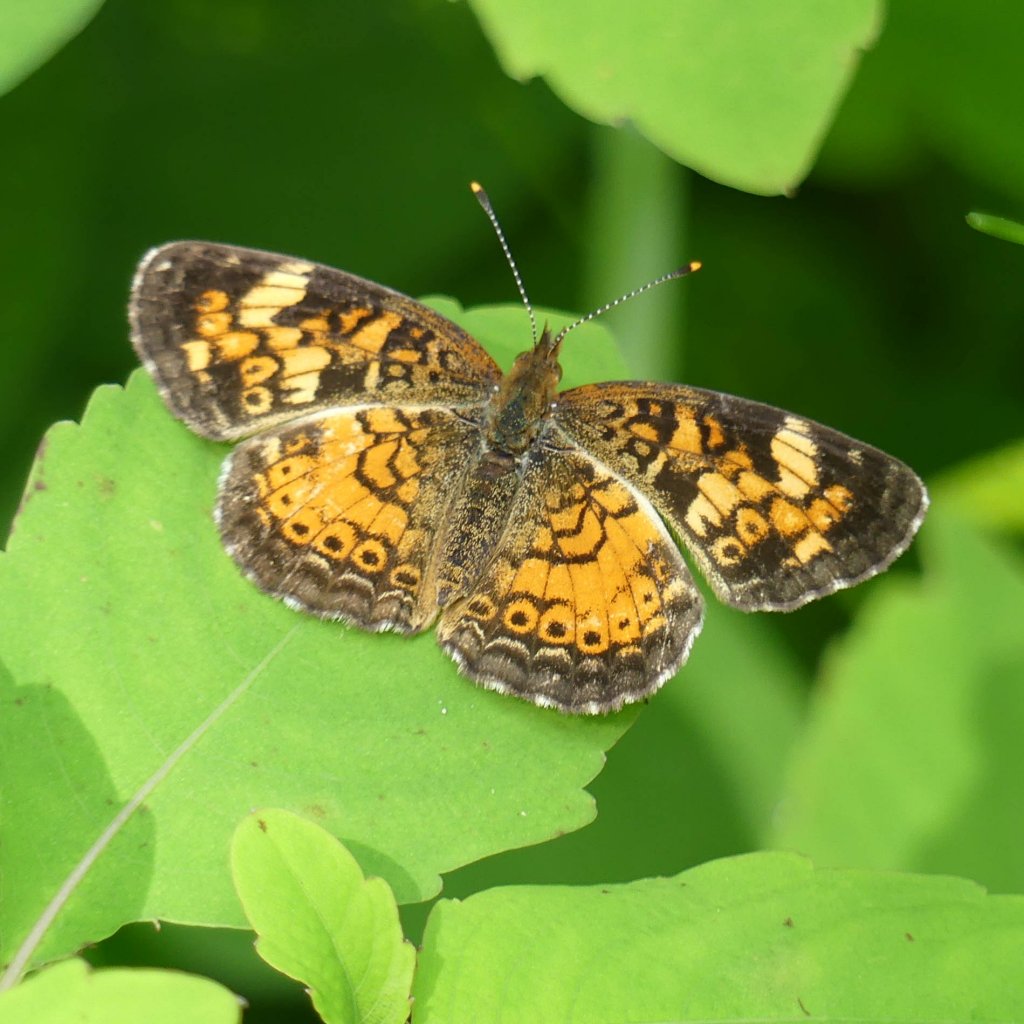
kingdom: Animalia
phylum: Arthropoda
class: Insecta
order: Lepidoptera
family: Nymphalidae
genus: Phyciodes
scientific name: Phyciodes tharos
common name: Northern Crescent
